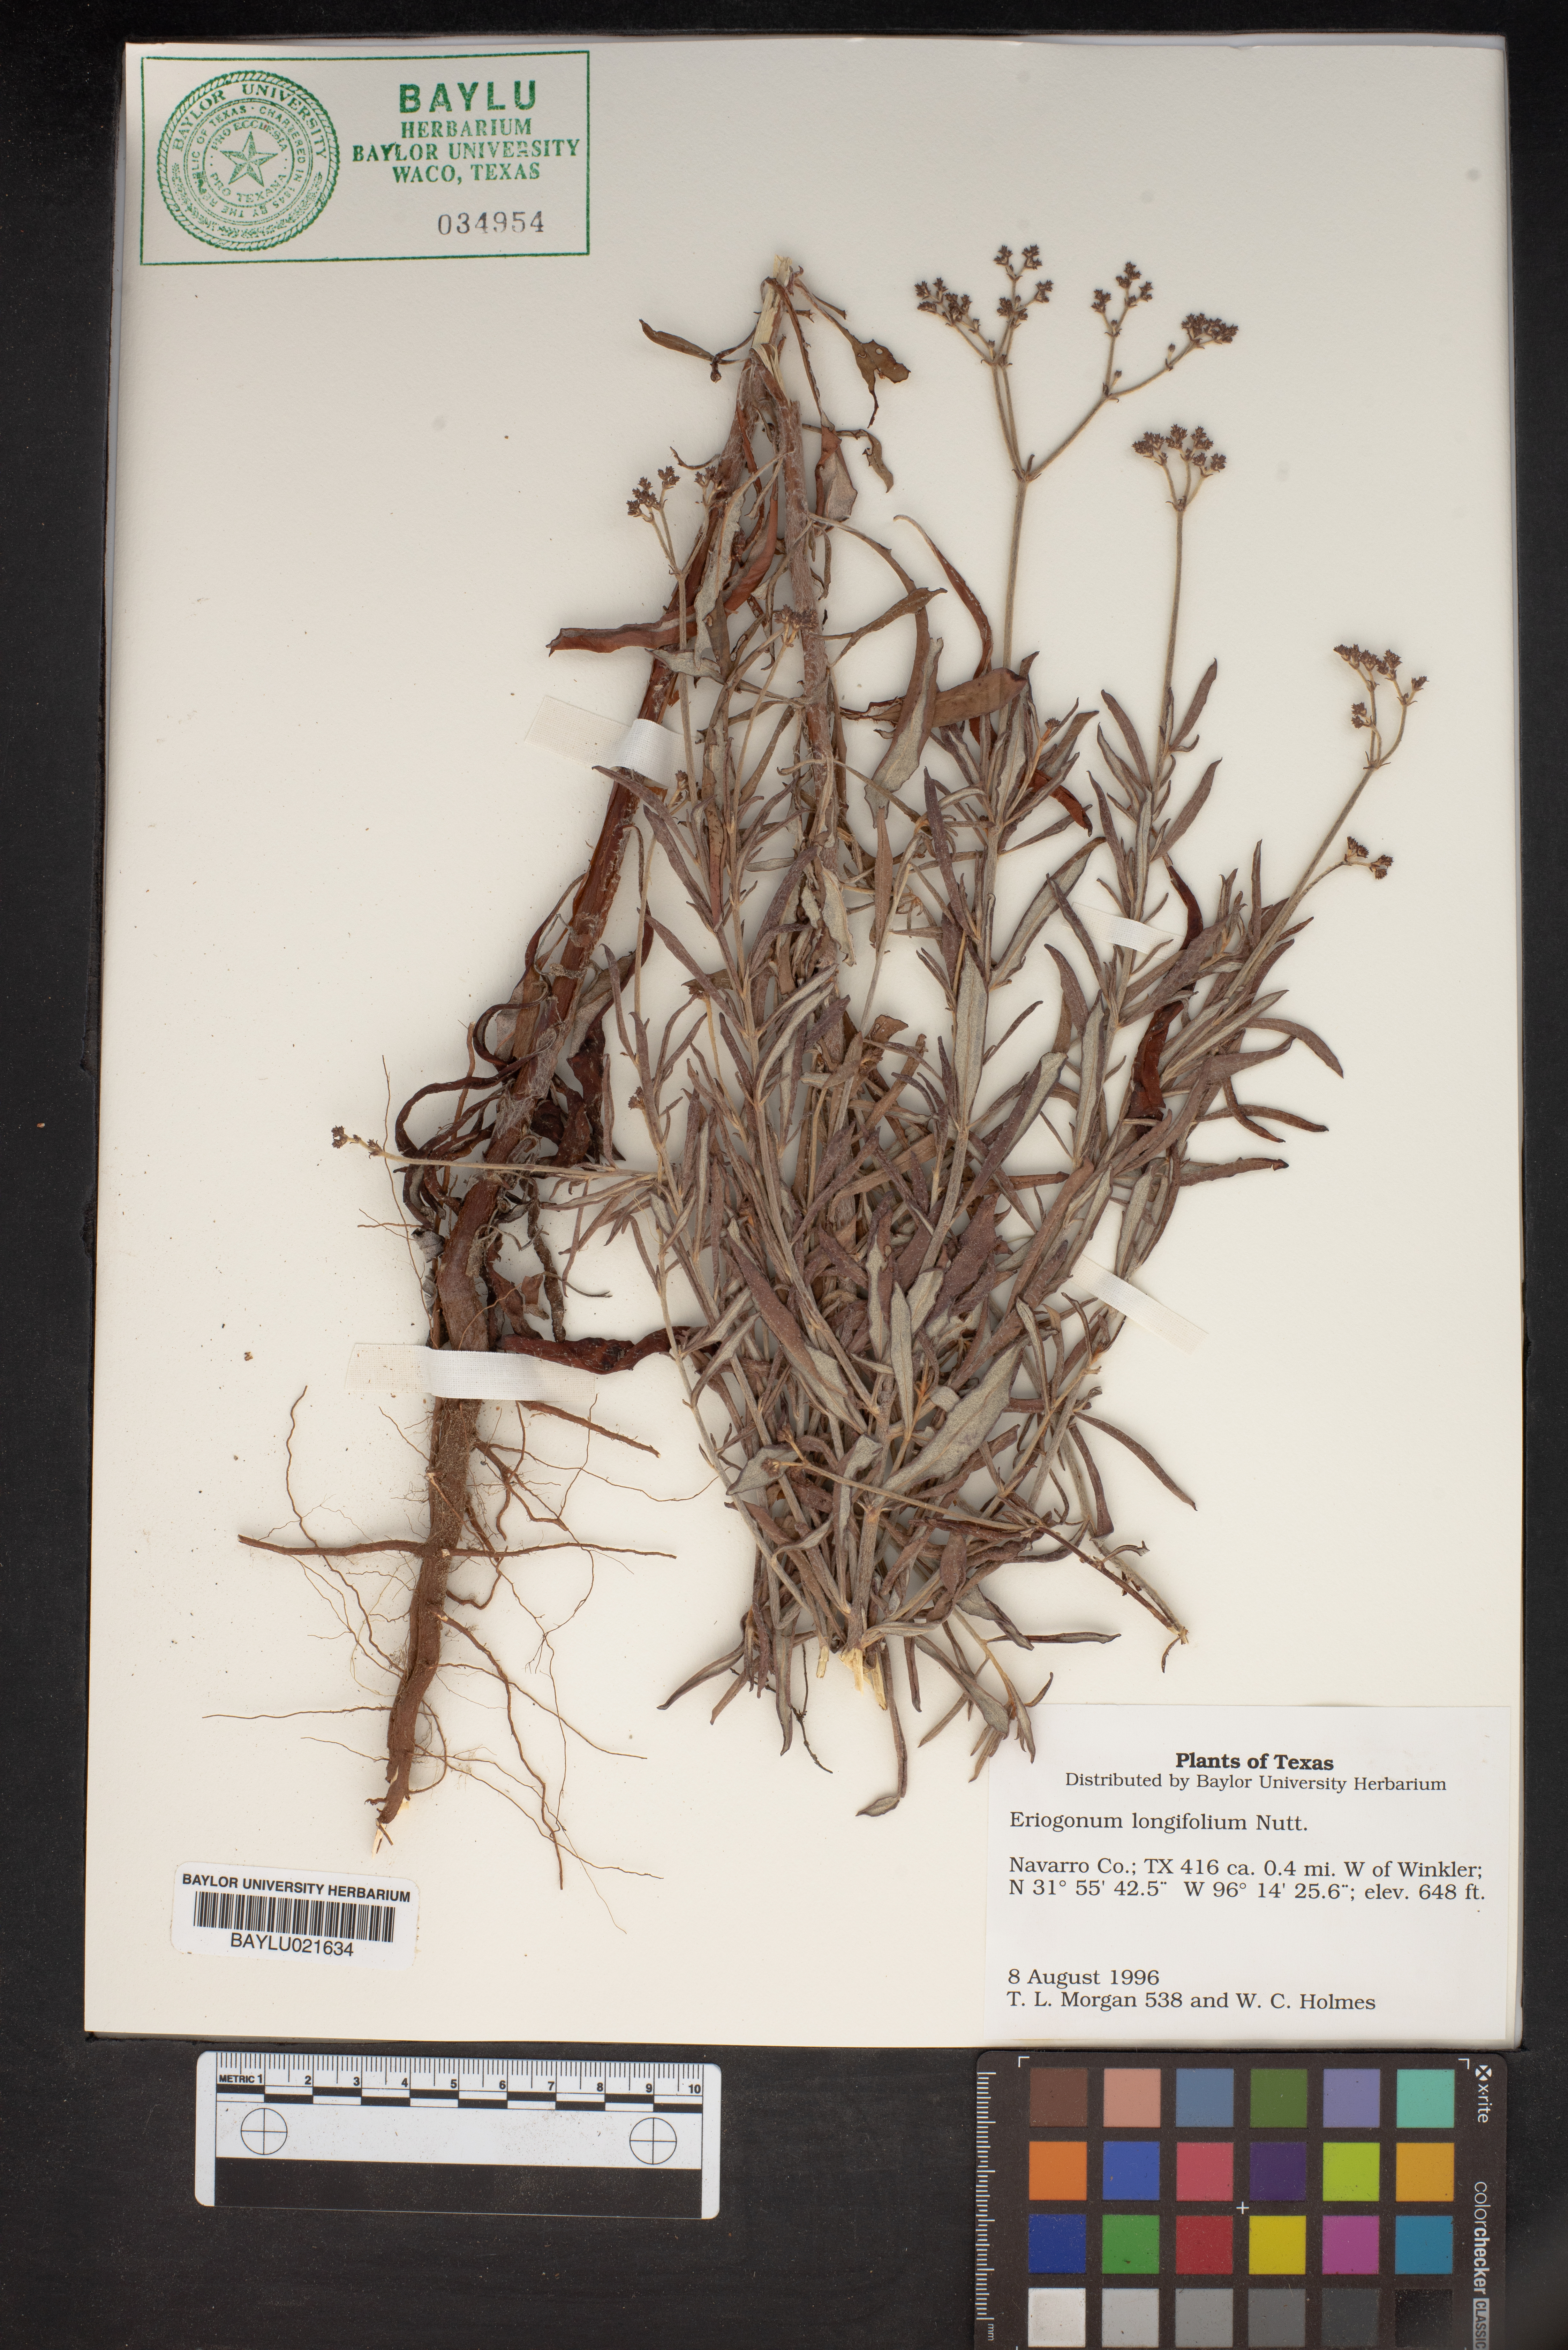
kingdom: Plantae
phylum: Tracheophyta
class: Magnoliopsida
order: Caryophyllales
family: Polygonaceae
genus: Eriogonum
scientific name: Eriogonum longifolium
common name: Longleaf wild buckwheat
